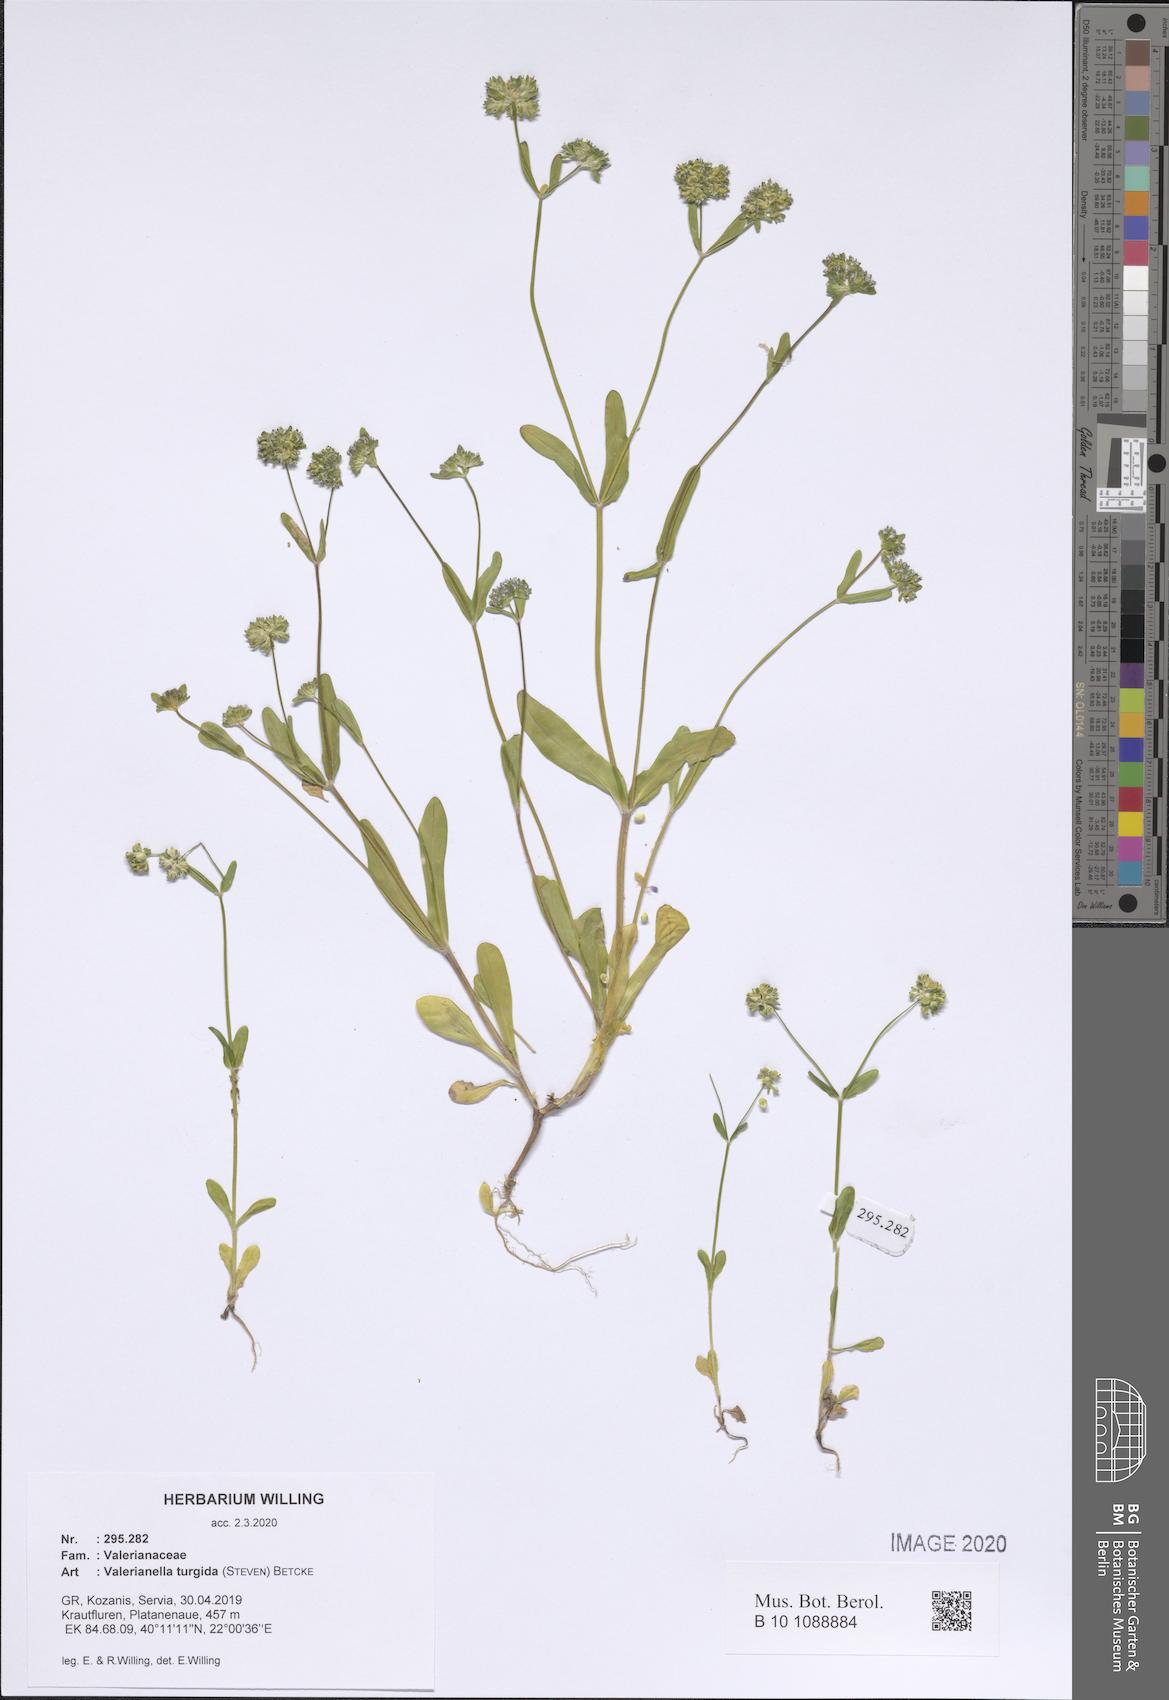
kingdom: Plantae
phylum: Tracheophyta
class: Magnoliopsida
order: Dipsacales
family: Caprifoliaceae
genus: Valerianella
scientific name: Valerianella turgida
